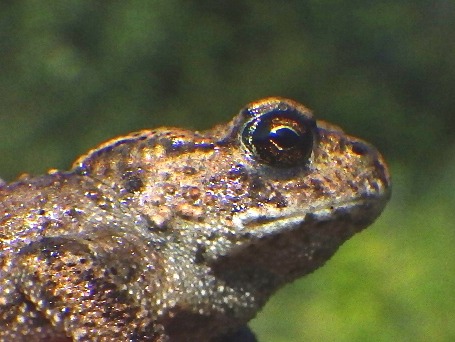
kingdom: Animalia
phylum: Chordata
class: Amphibia
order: Anura
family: Bufonidae
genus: Bufo
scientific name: Bufo bufo
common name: Skrubtudse
